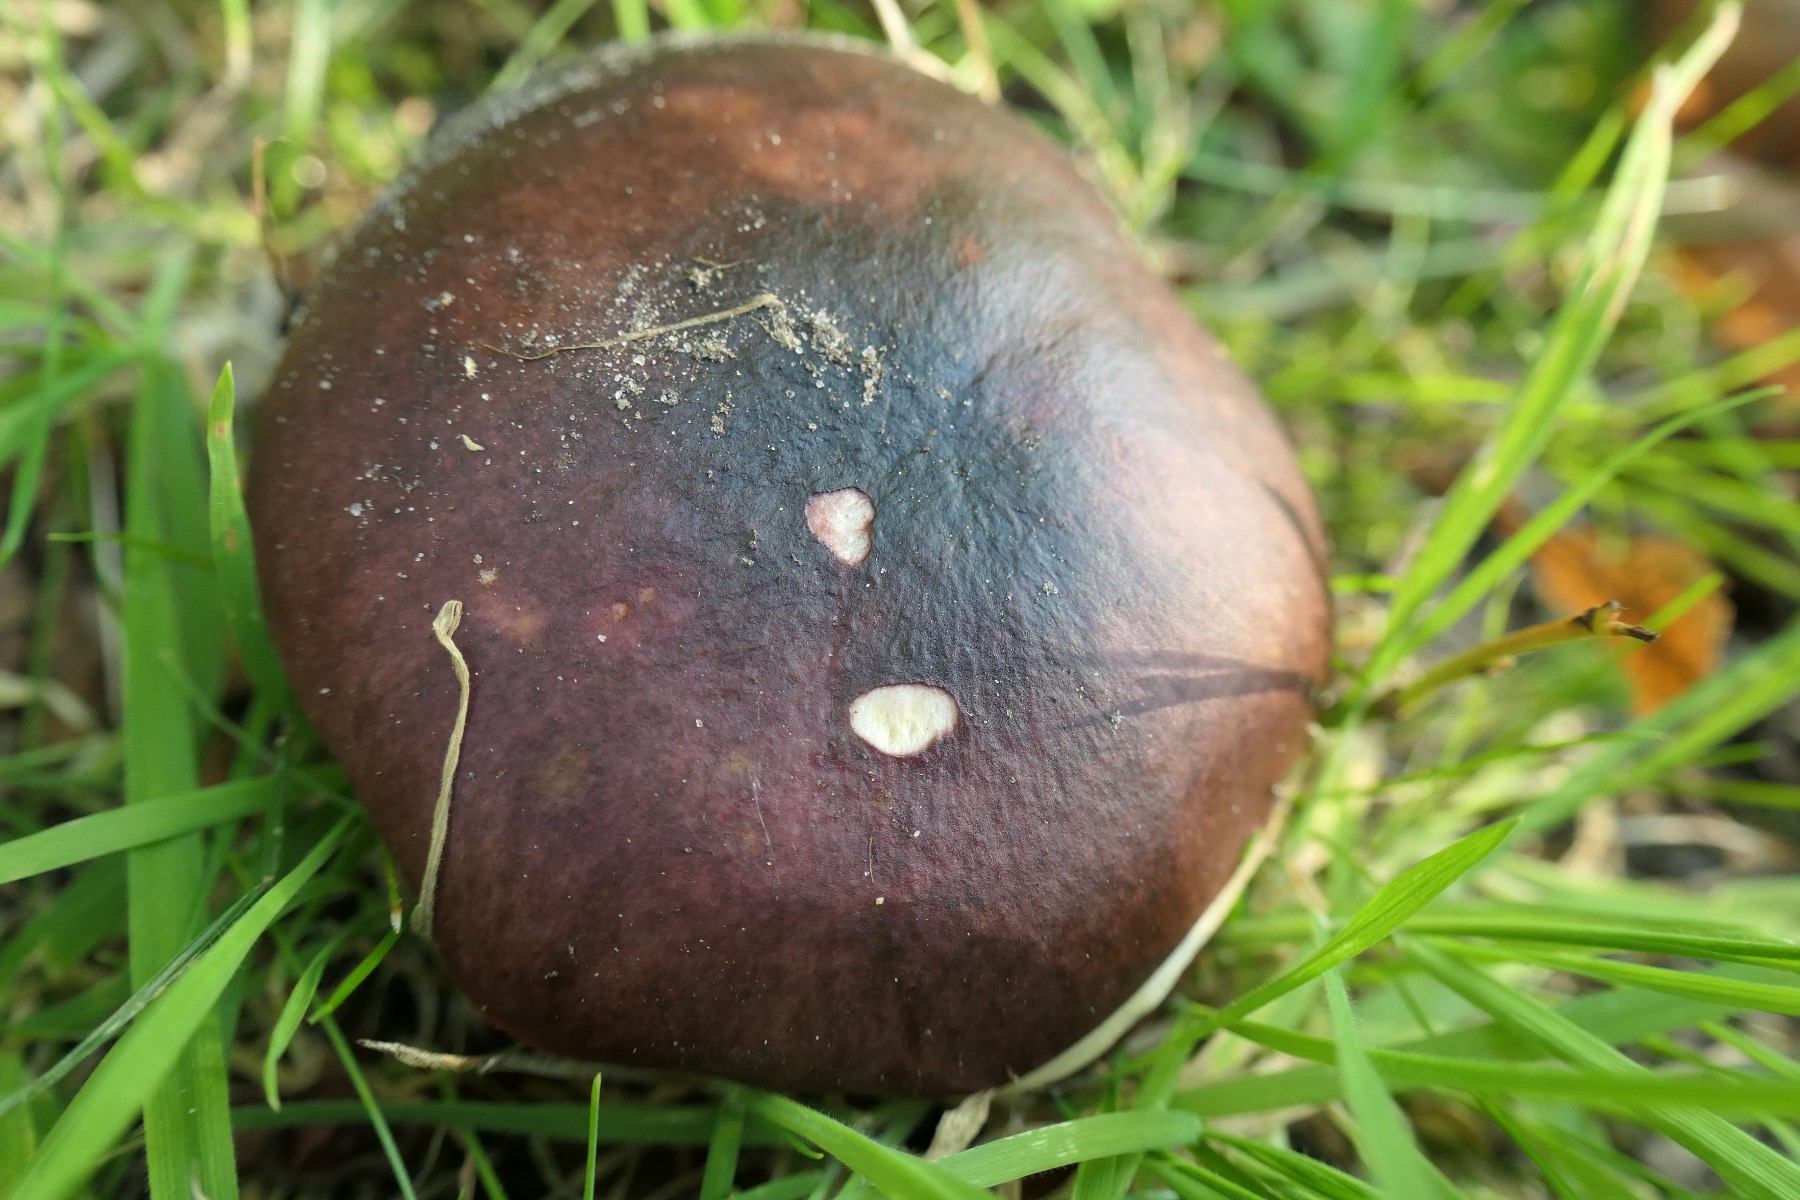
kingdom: Fungi
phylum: Basidiomycota
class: Agaricomycetes
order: Russulales
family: Russulaceae
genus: Russula
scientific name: Russula atropurpurea
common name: purpurbroget skørhat
